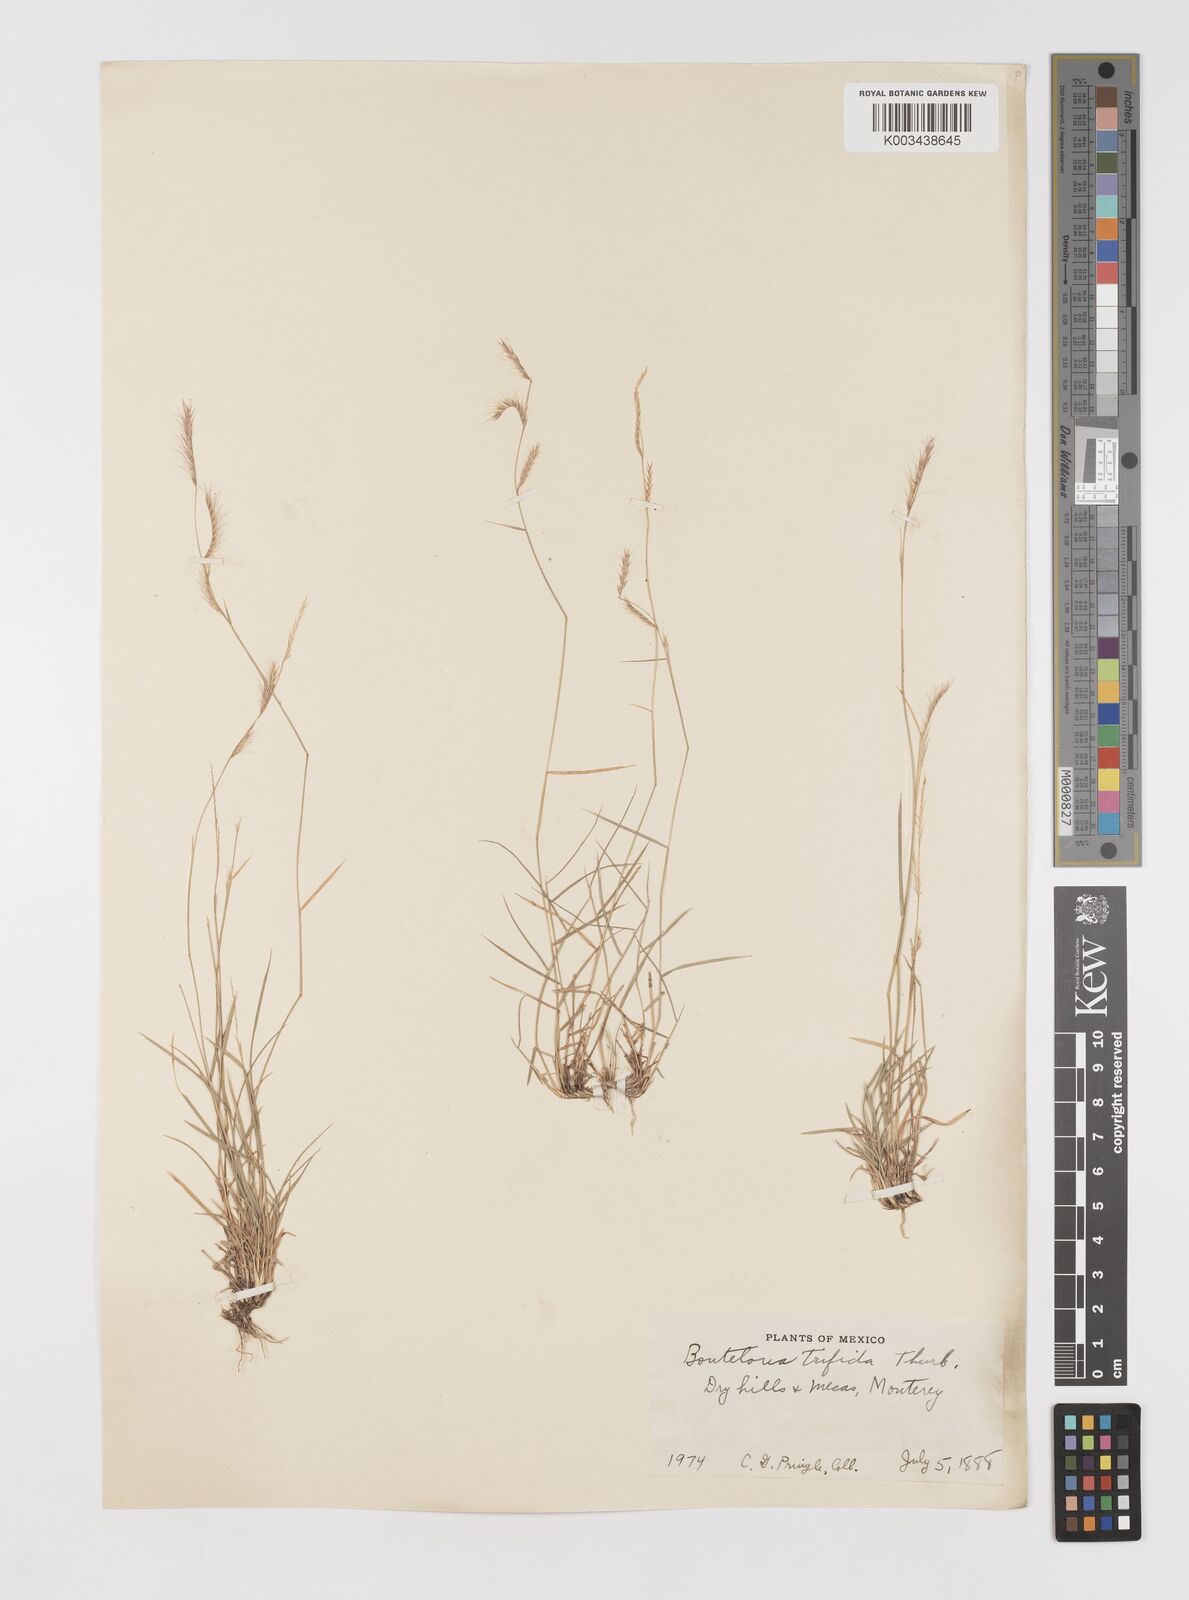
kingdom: Plantae
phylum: Tracheophyta
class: Liliopsida
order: Poales
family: Poaceae
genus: Bouteloua
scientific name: Bouteloua
